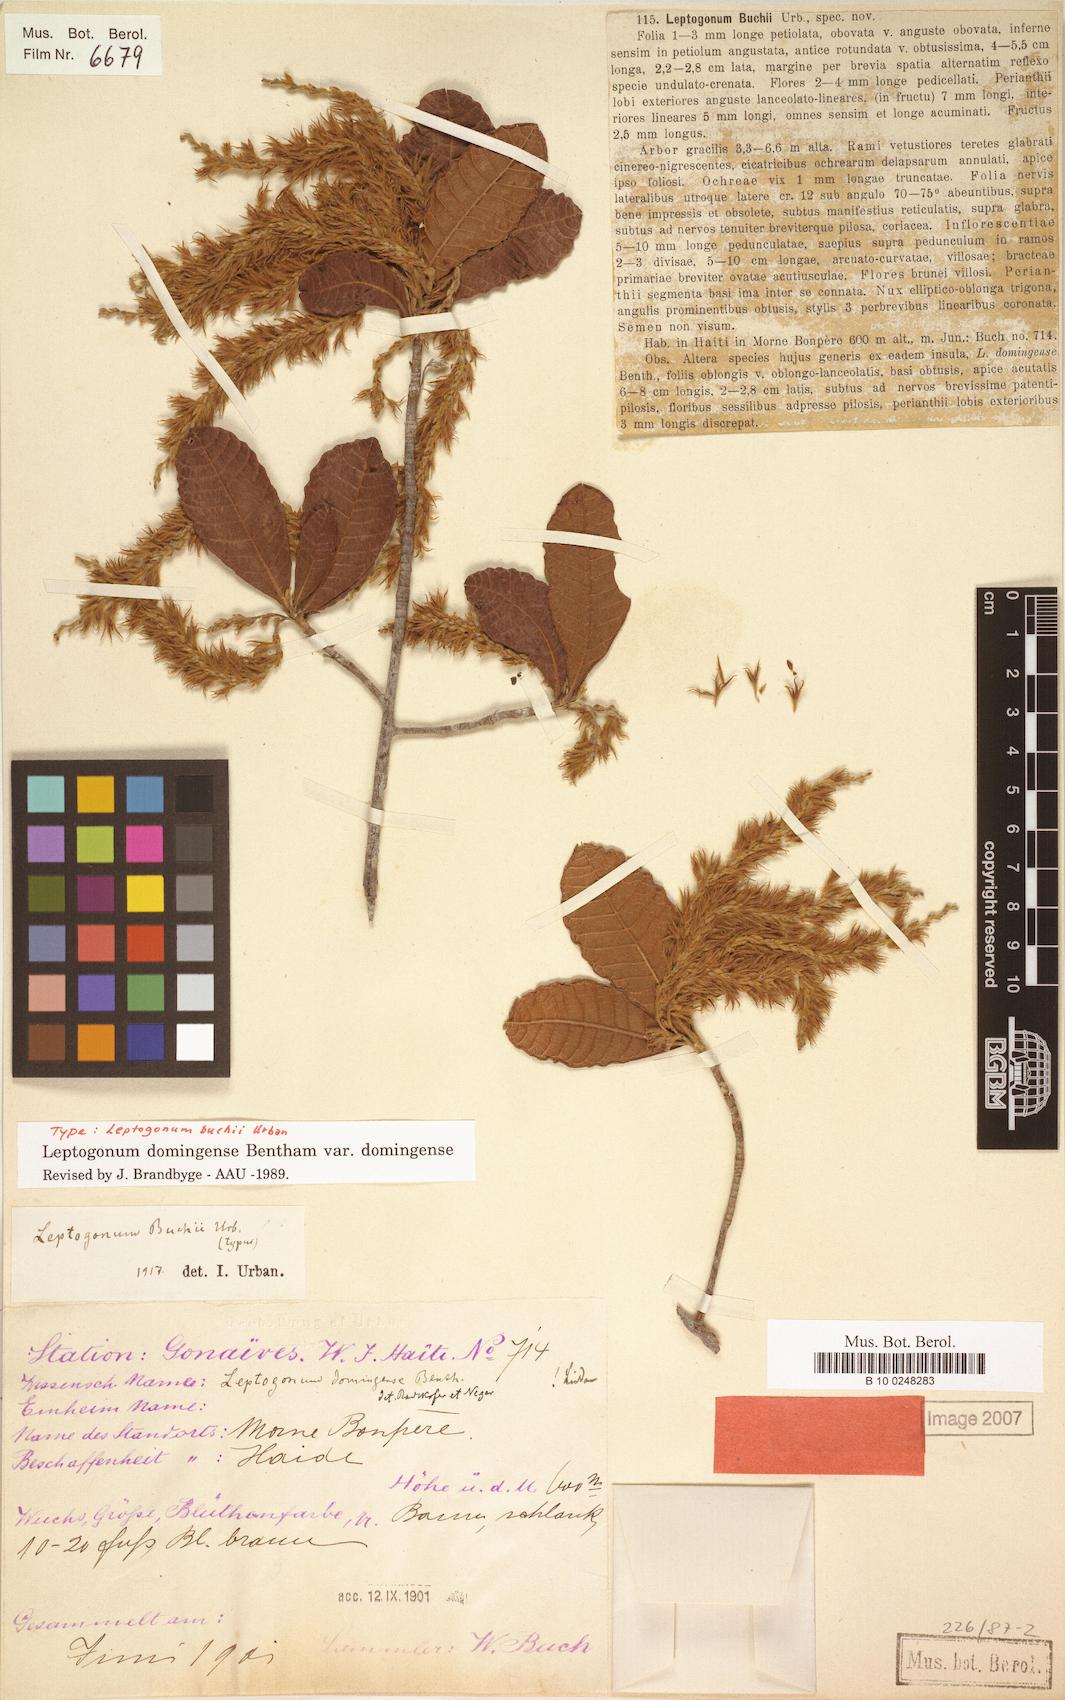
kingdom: Plantae
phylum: Tracheophyta
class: Magnoliopsida
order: Caryophyllales
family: Polygonaceae
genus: Leptogonum
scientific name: Leptogonum domingense
